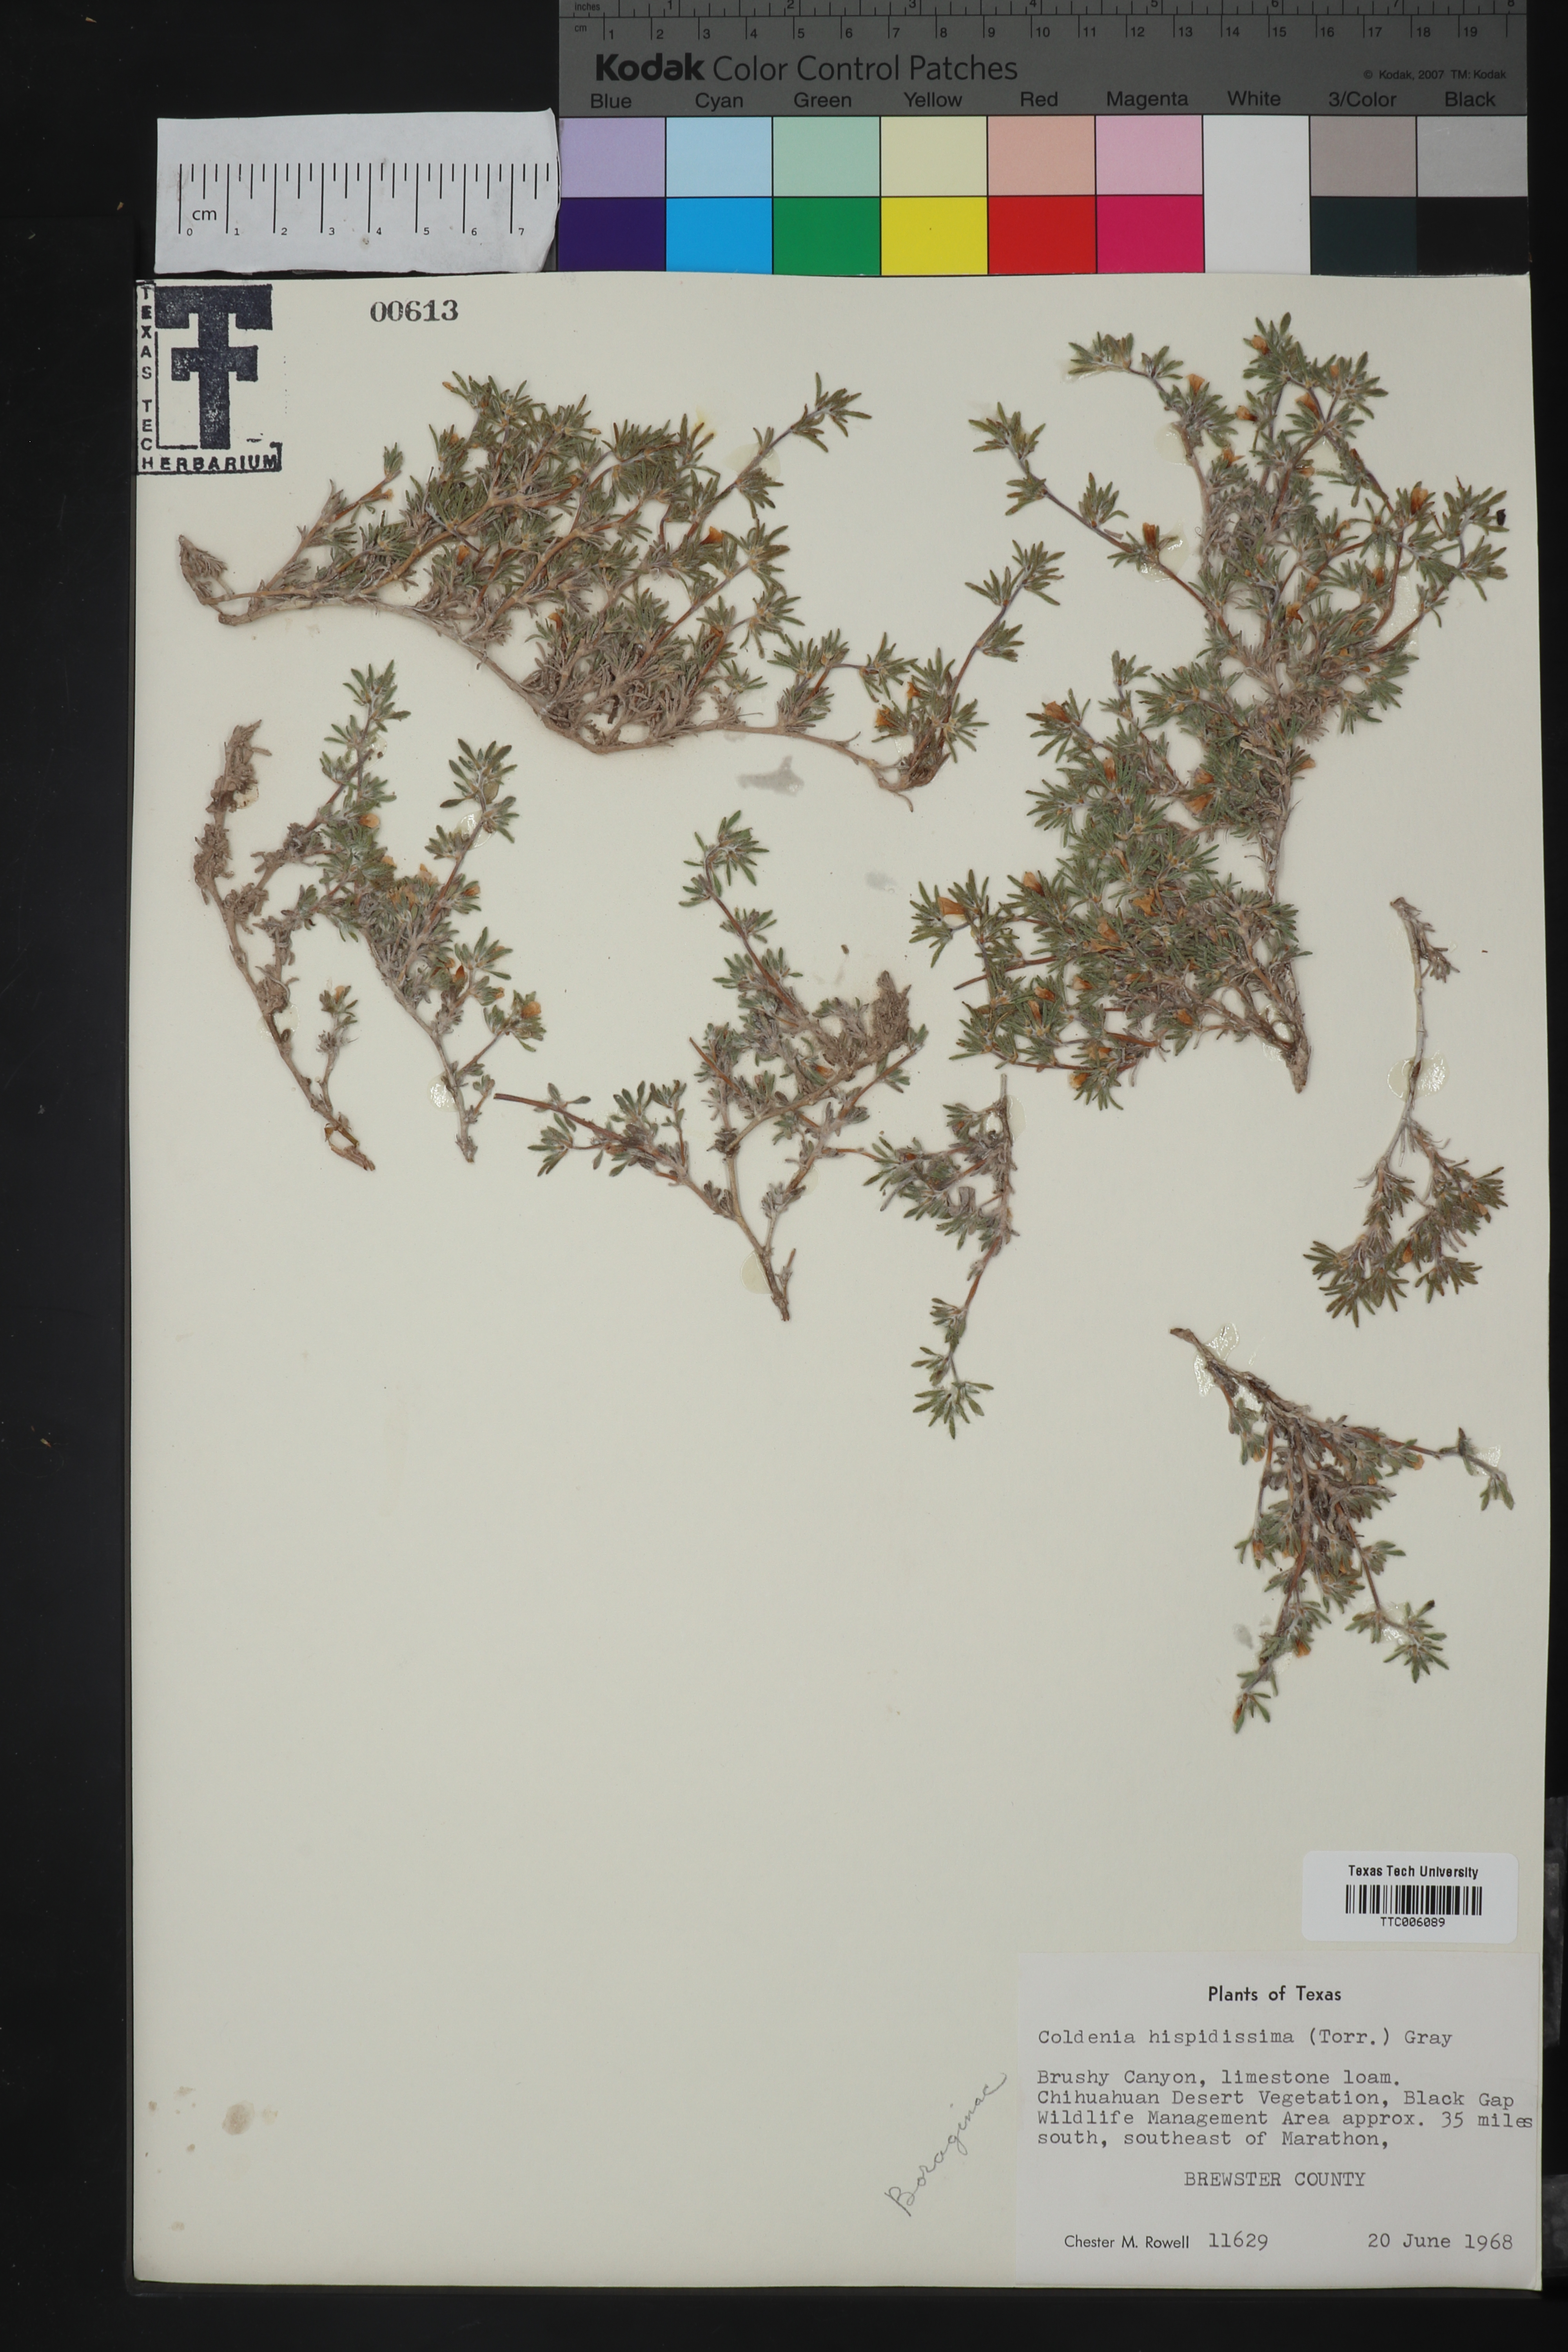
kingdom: Plantae
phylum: Tracheophyta
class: Magnoliopsida
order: Boraginales
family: Ehretiaceae
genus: Tiquilia
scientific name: Tiquilia hispidissima
